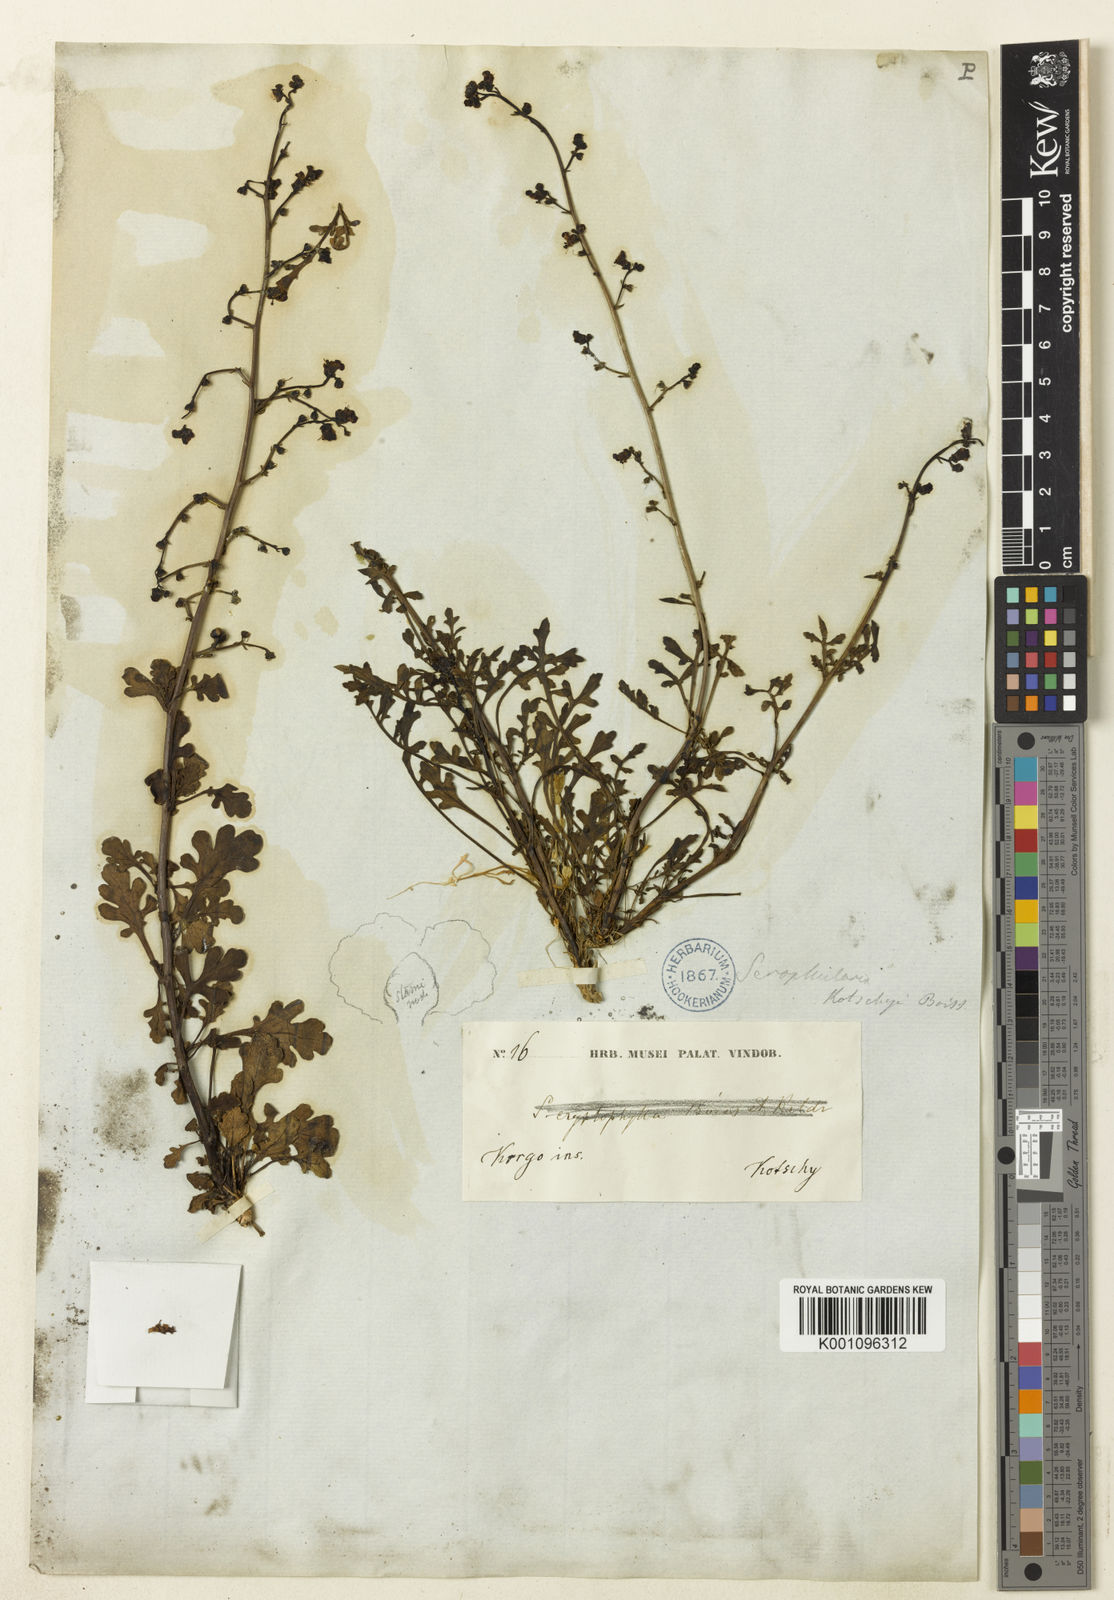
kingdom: Plantae
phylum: Tracheophyta
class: Magnoliopsida
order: Lamiales
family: Scrophulariaceae
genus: Scrophularia
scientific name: Scrophularia dentata
